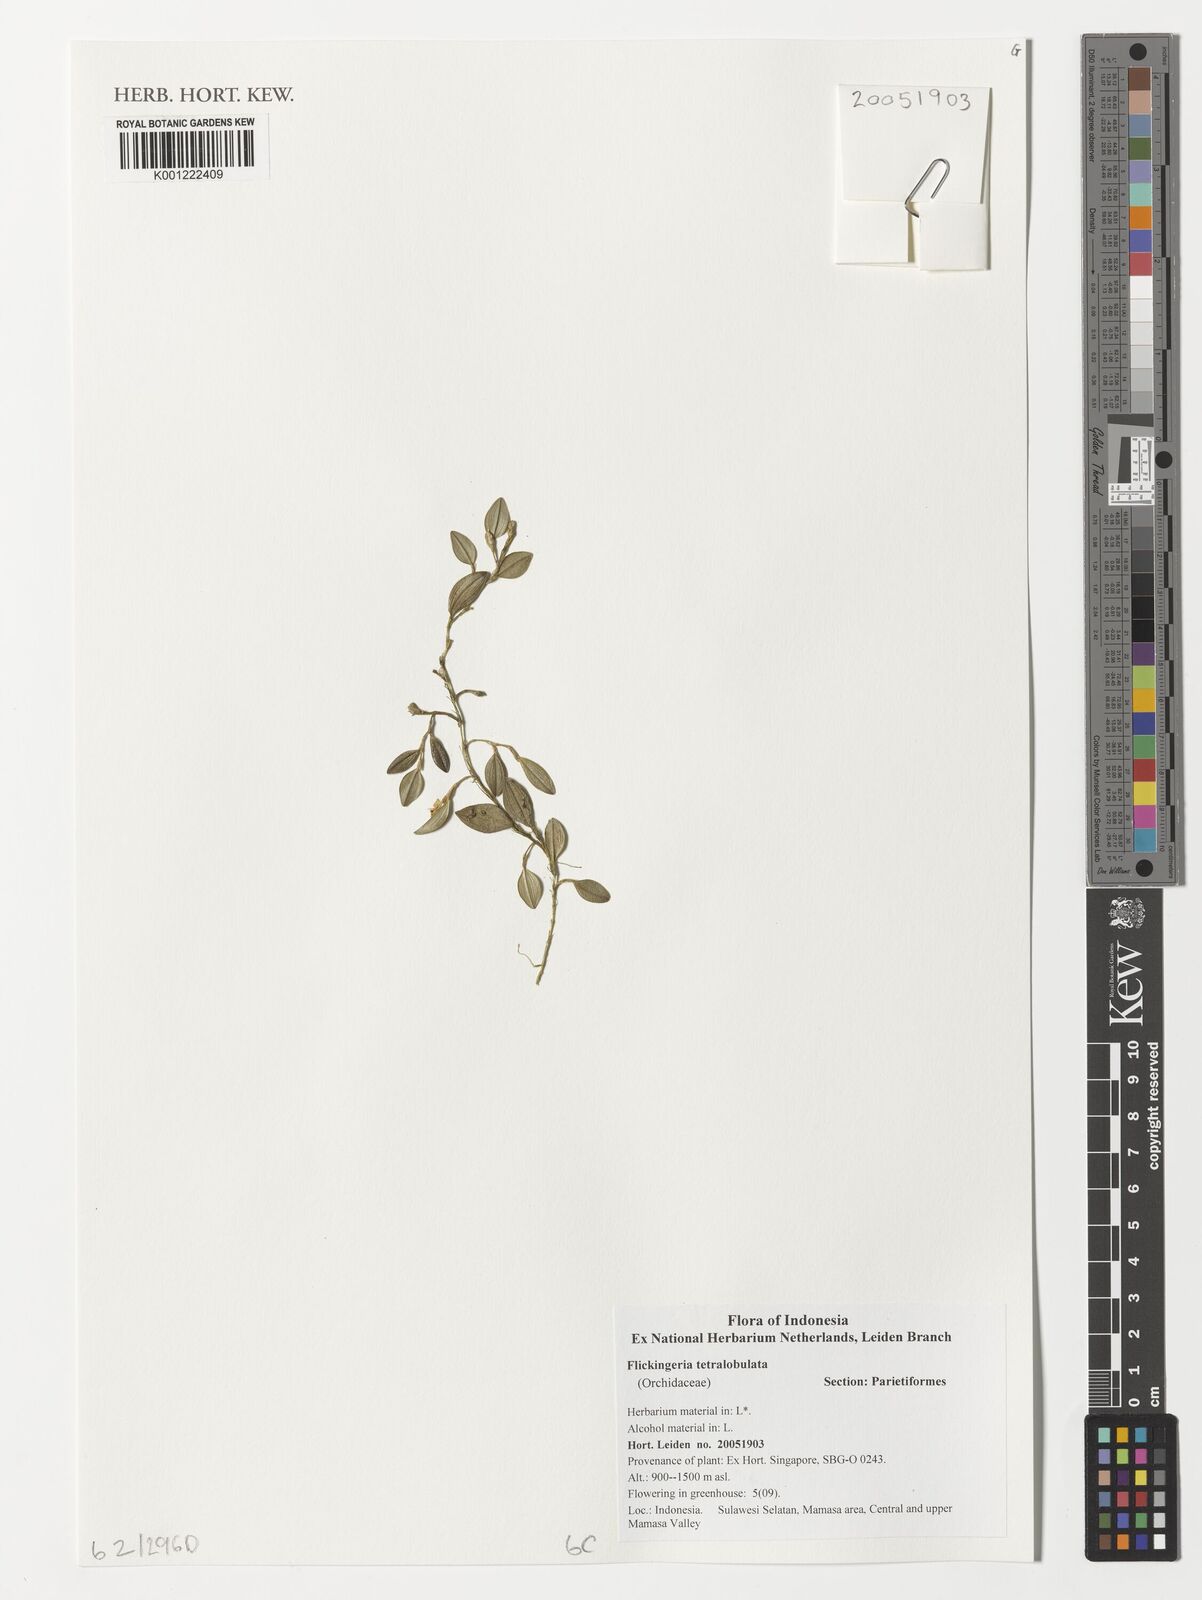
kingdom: Plantae
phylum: Tracheophyta
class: Liliopsida
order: Asparagales
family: Orchidaceae
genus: Dendrobium
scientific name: Dendrobium tetralobatum
